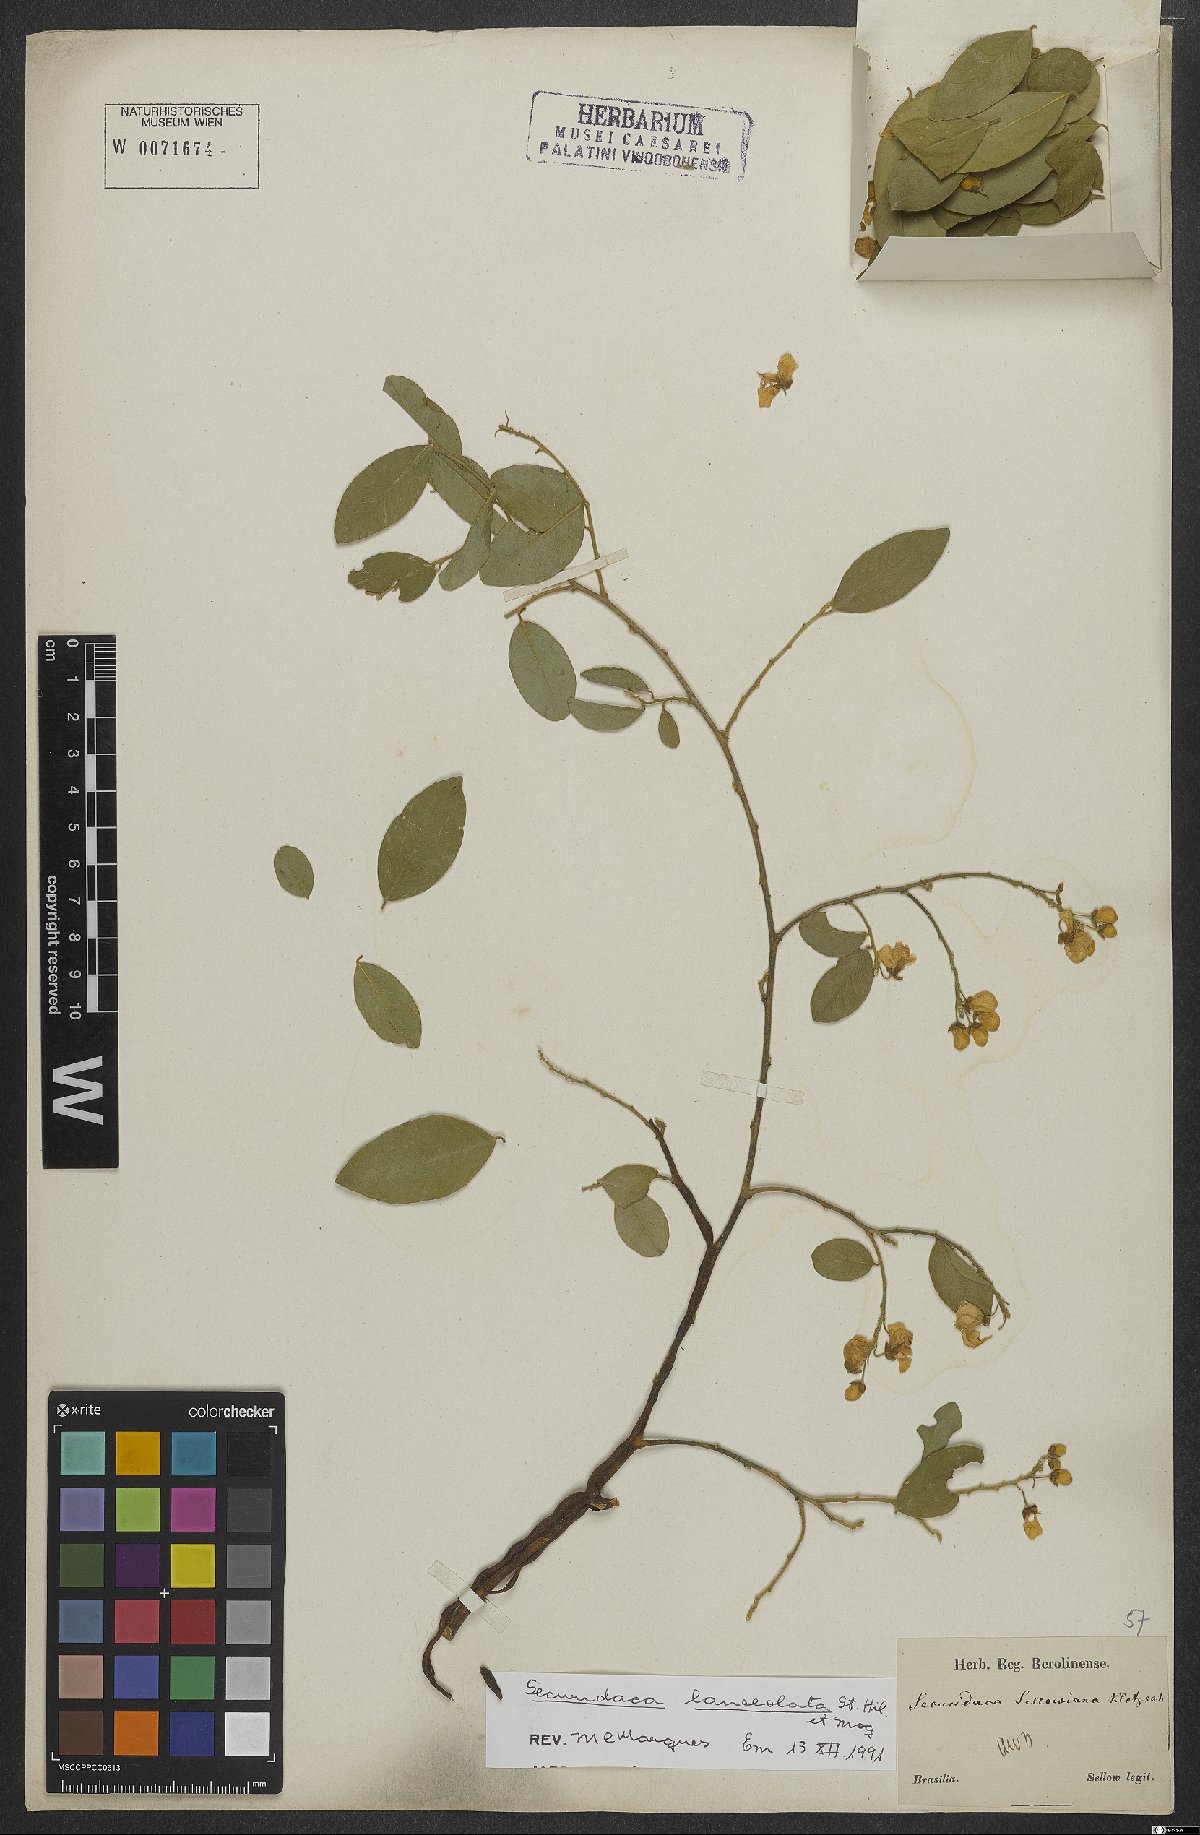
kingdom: Plantae
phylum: Tracheophyta
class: Magnoliopsida
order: Fabales
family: Polygalaceae
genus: Securidaca
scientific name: Securidaca lanceolata
